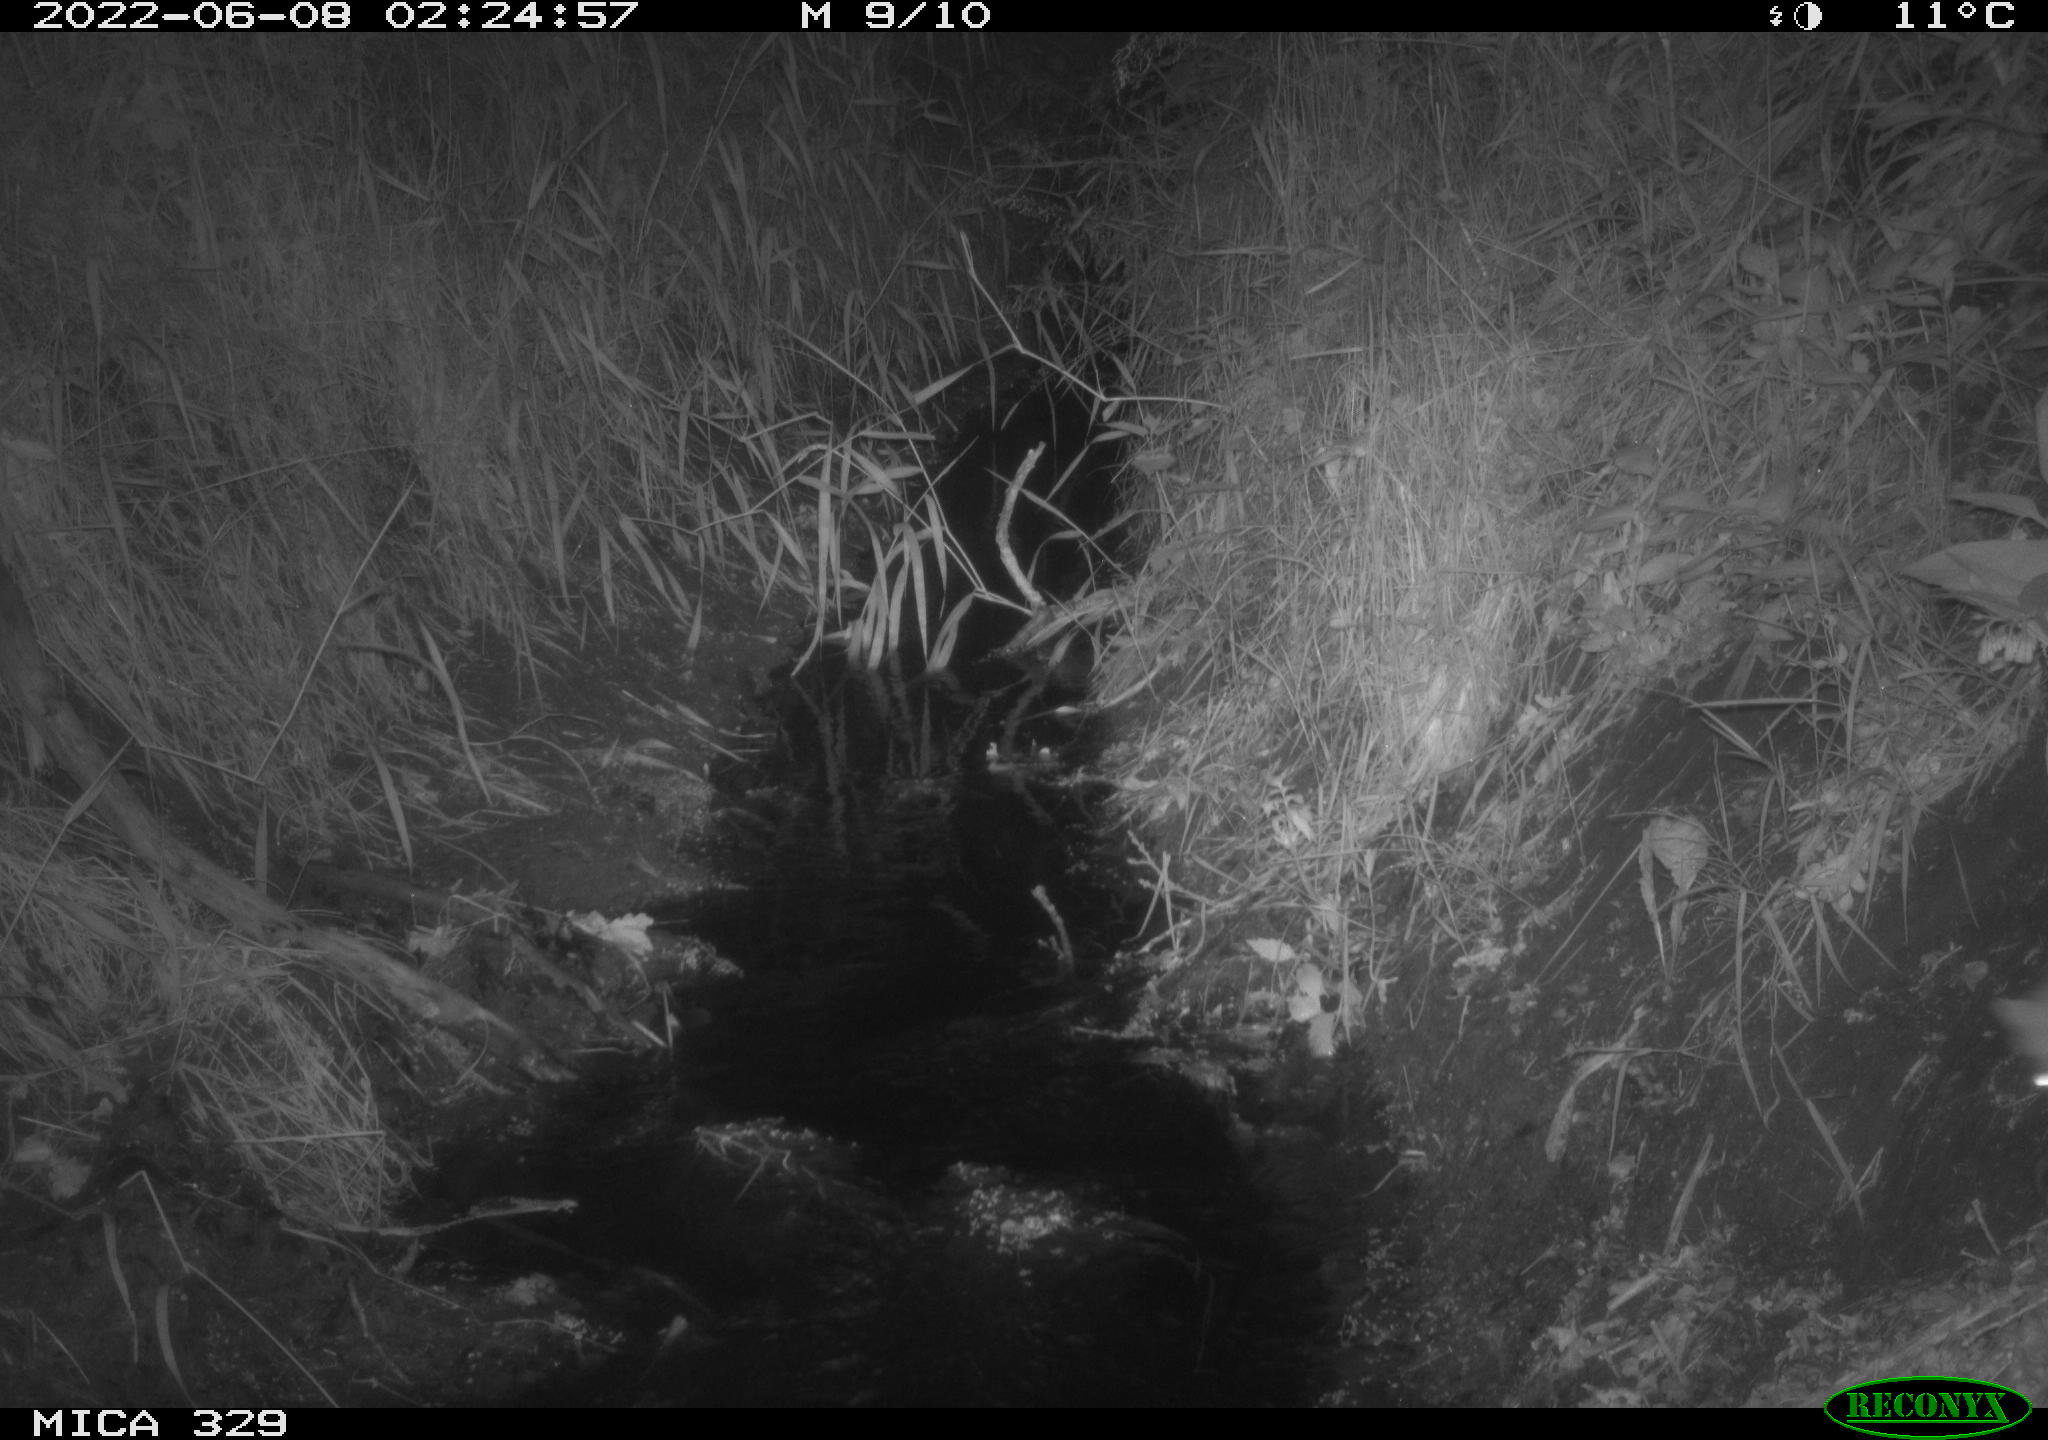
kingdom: Animalia
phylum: Chordata
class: Mammalia
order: Carnivora
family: Mustelidae
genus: Mustela
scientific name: Mustela erminea
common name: Stoat
